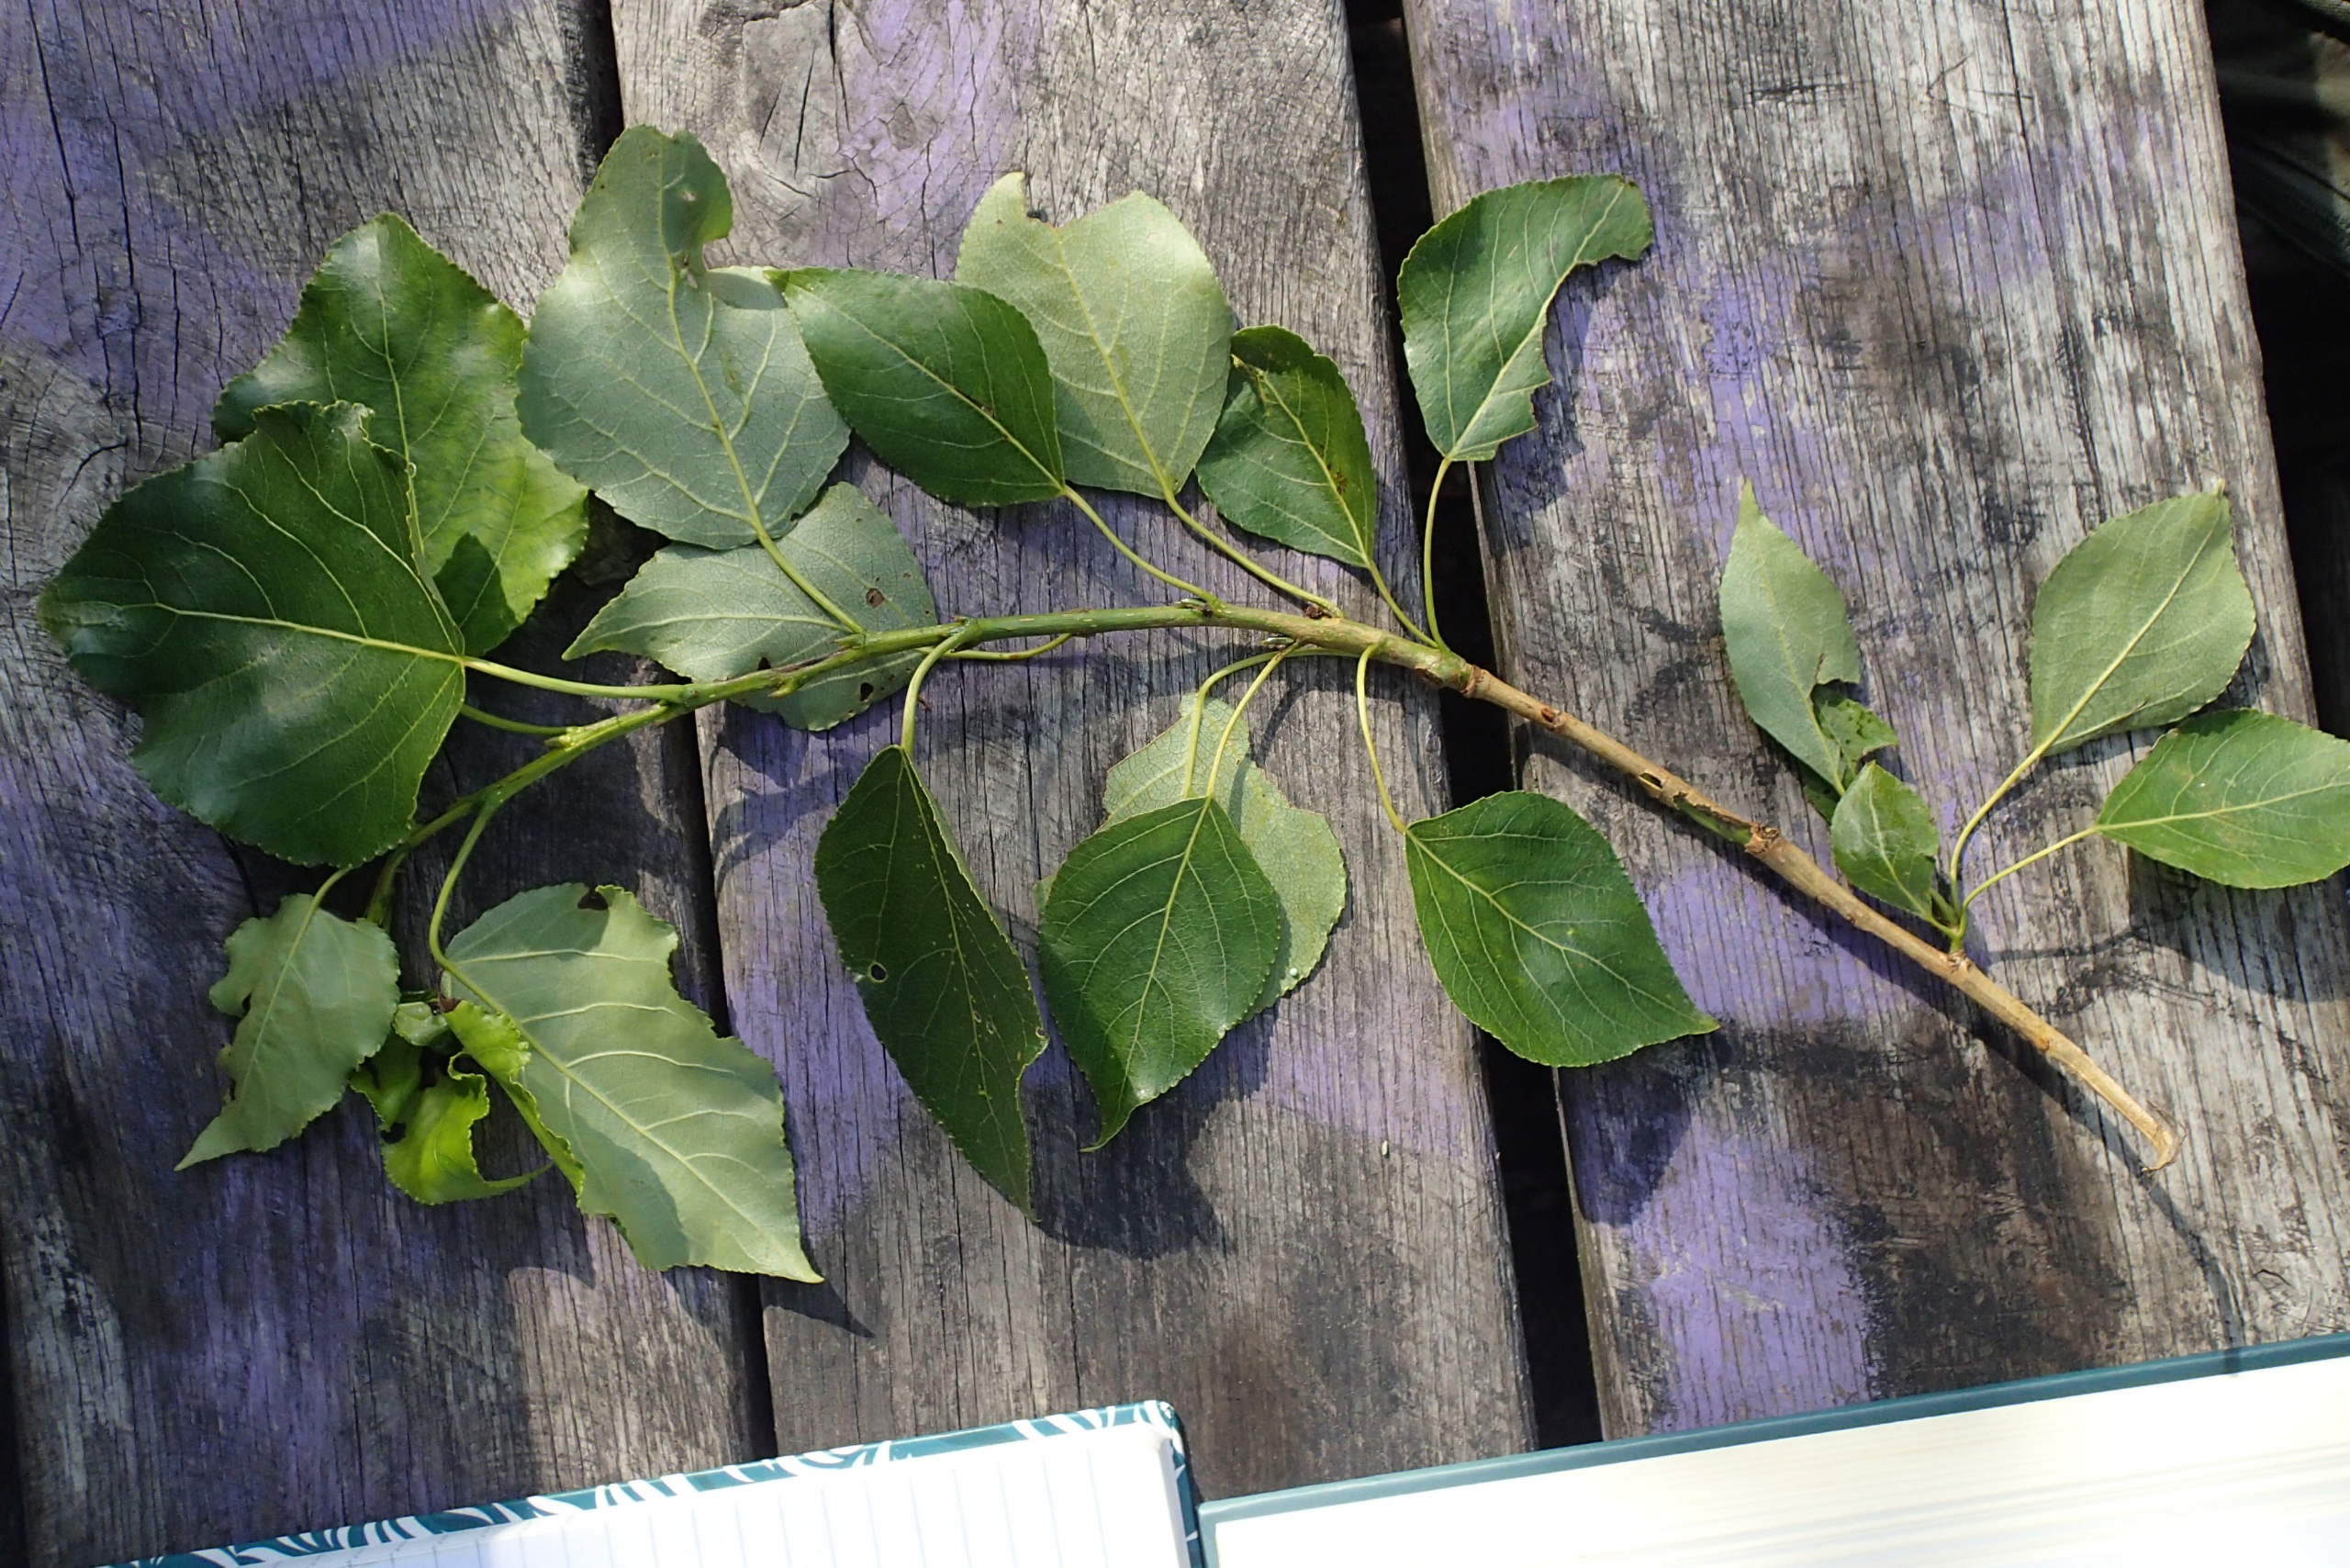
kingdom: Plantae
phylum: Tracheophyta
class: Magnoliopsida
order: Malpighiales
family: Salicaceae
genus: Populus
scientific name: Populus berolinensis
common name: Berliner-poppel
